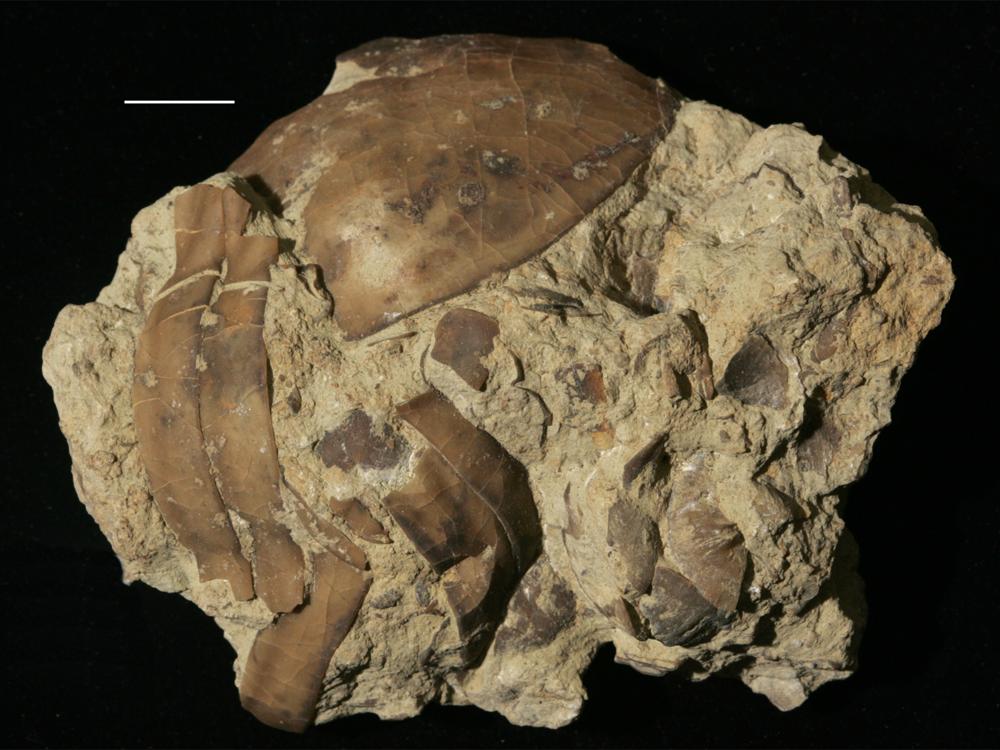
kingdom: Animalia
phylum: Arthropoda
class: Trilobita
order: Asaphida
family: Asaphidae
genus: Isotelus
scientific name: Isotelus
